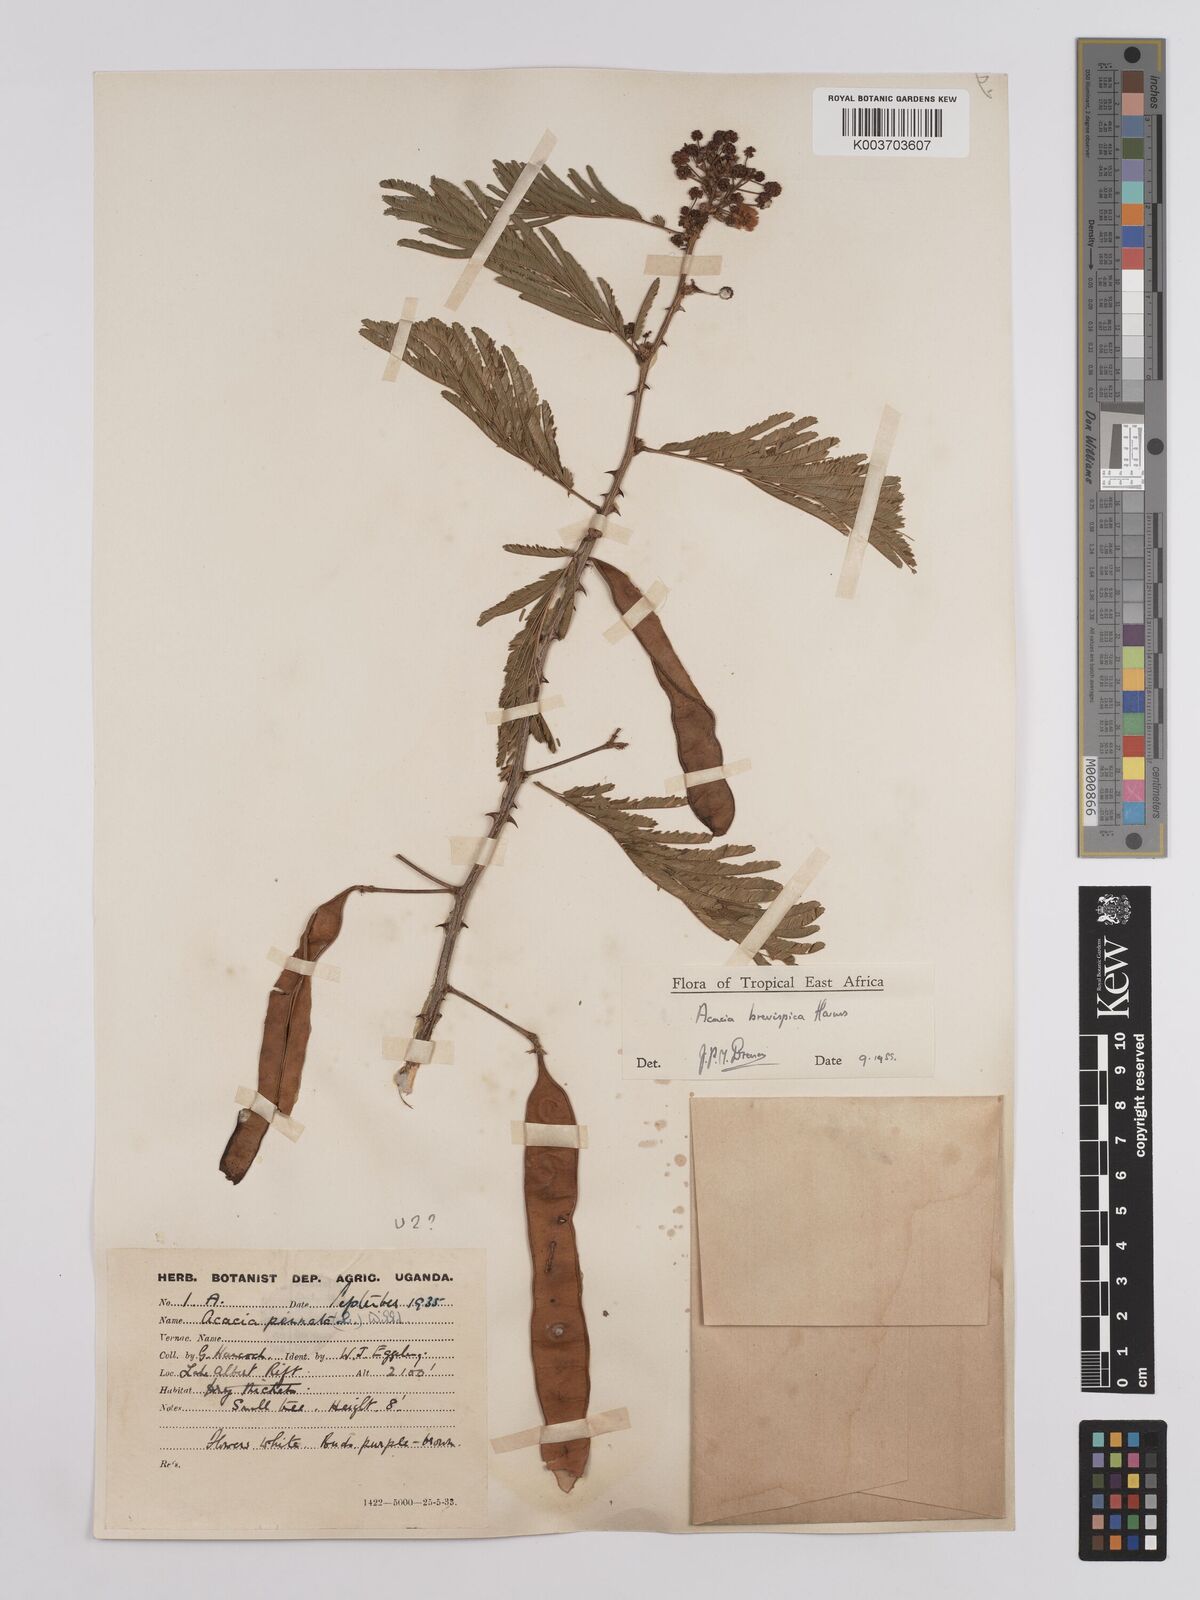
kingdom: Plantae
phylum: Tracheophyta
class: Magnoliopsida
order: Fabales
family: Fabaceae
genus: Senegalia
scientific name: Senegalia brevispica
